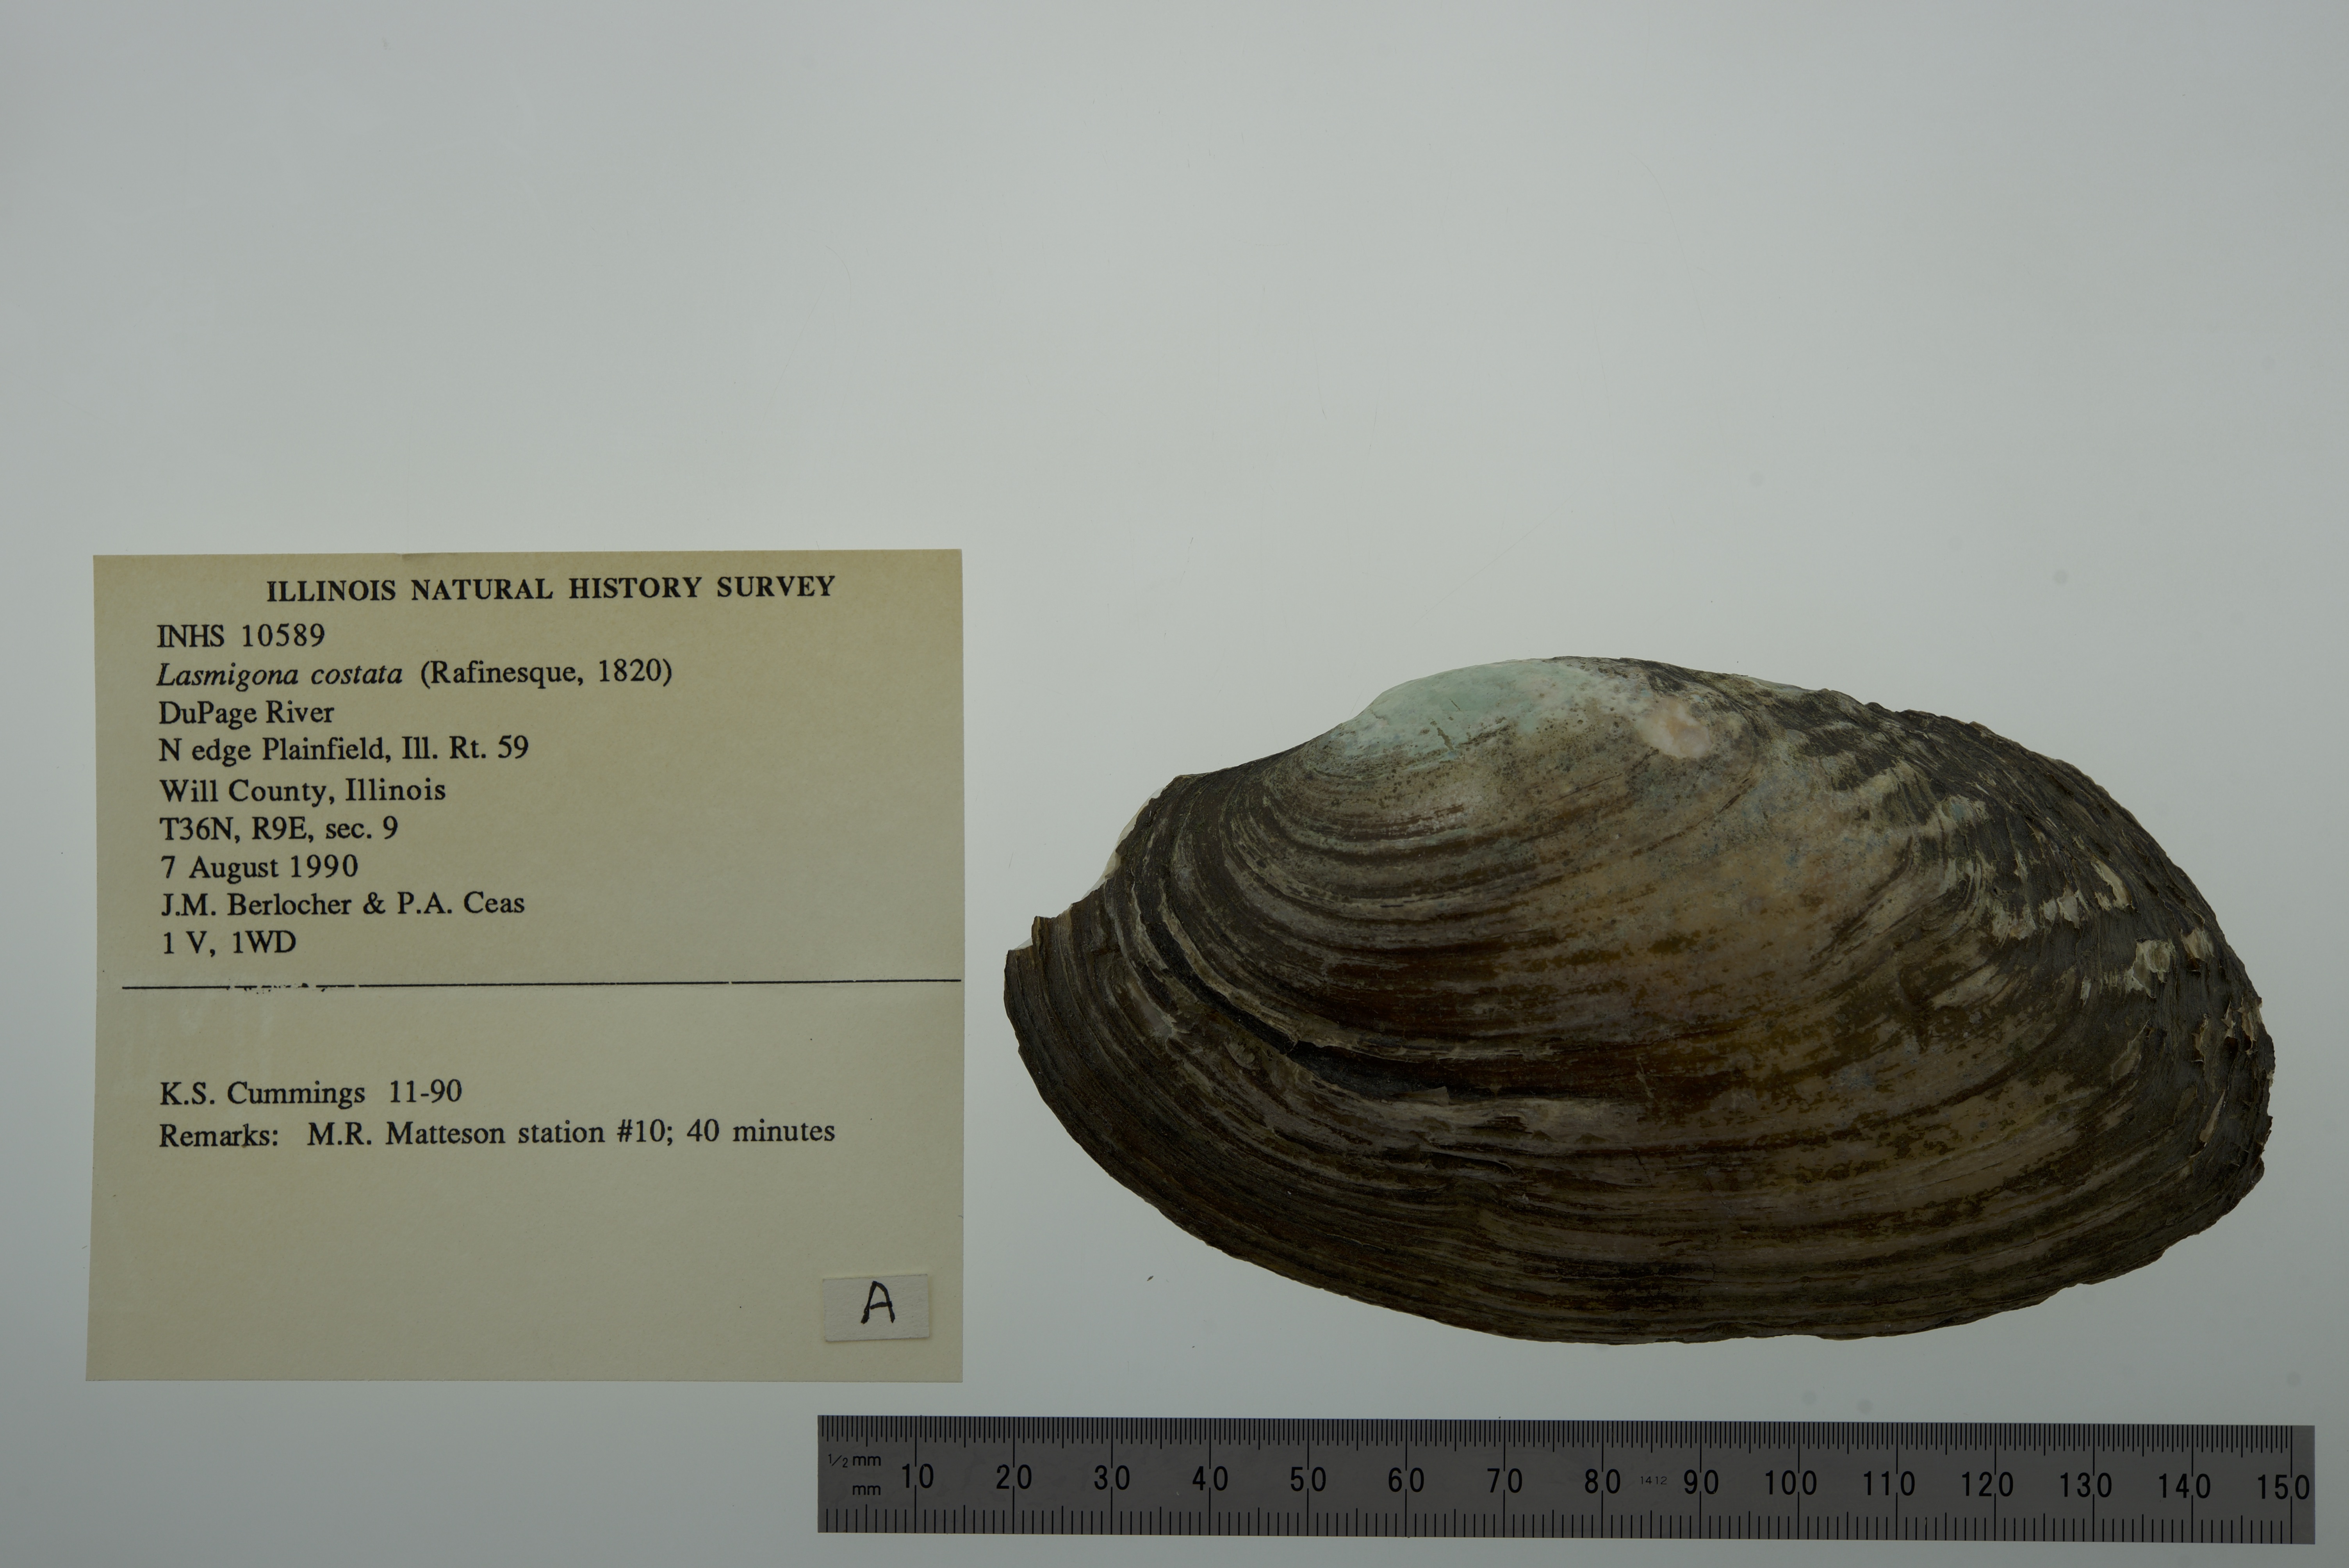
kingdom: Animalia
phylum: Mollusca
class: Bivalvia
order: Unionida
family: Unionidae
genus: Lasmigona
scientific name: Lasmigona costata
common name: Flutedshell
